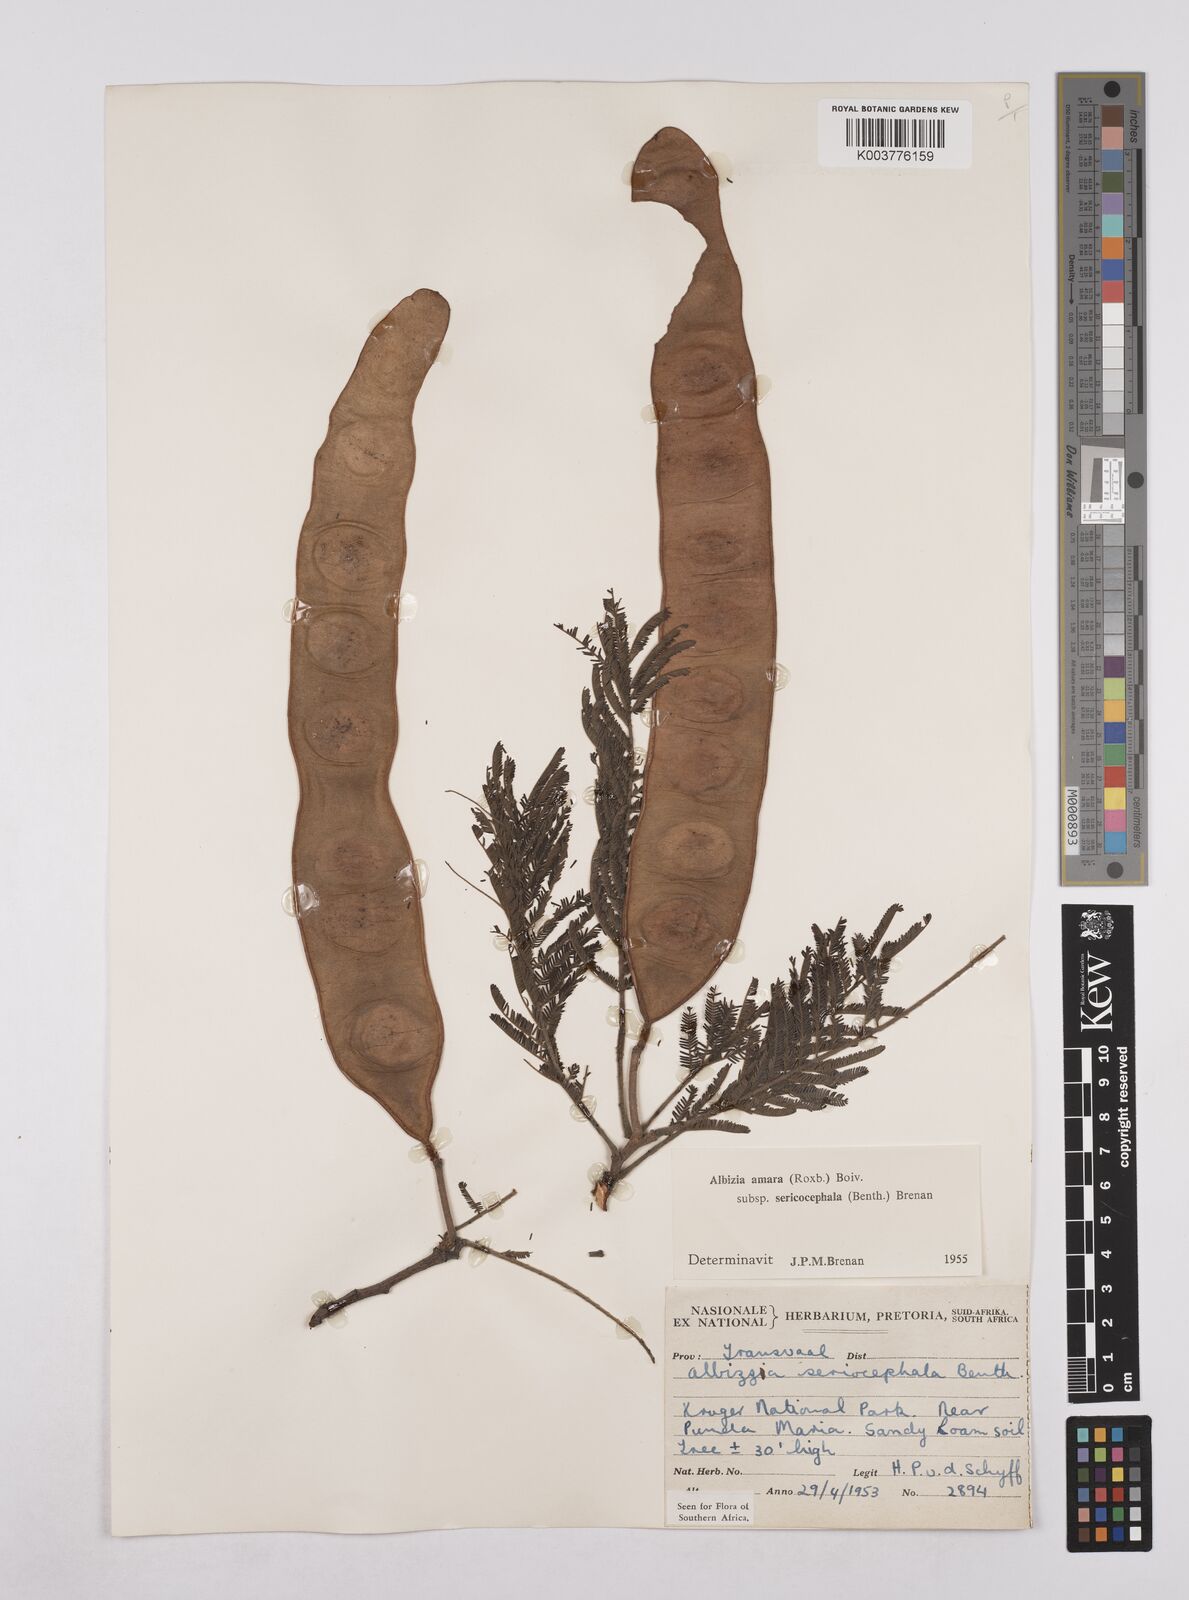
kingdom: Plantae
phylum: Tracheophyta
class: Magnoliopsida
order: Fabales
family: Fabaceae
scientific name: Fabaceae
